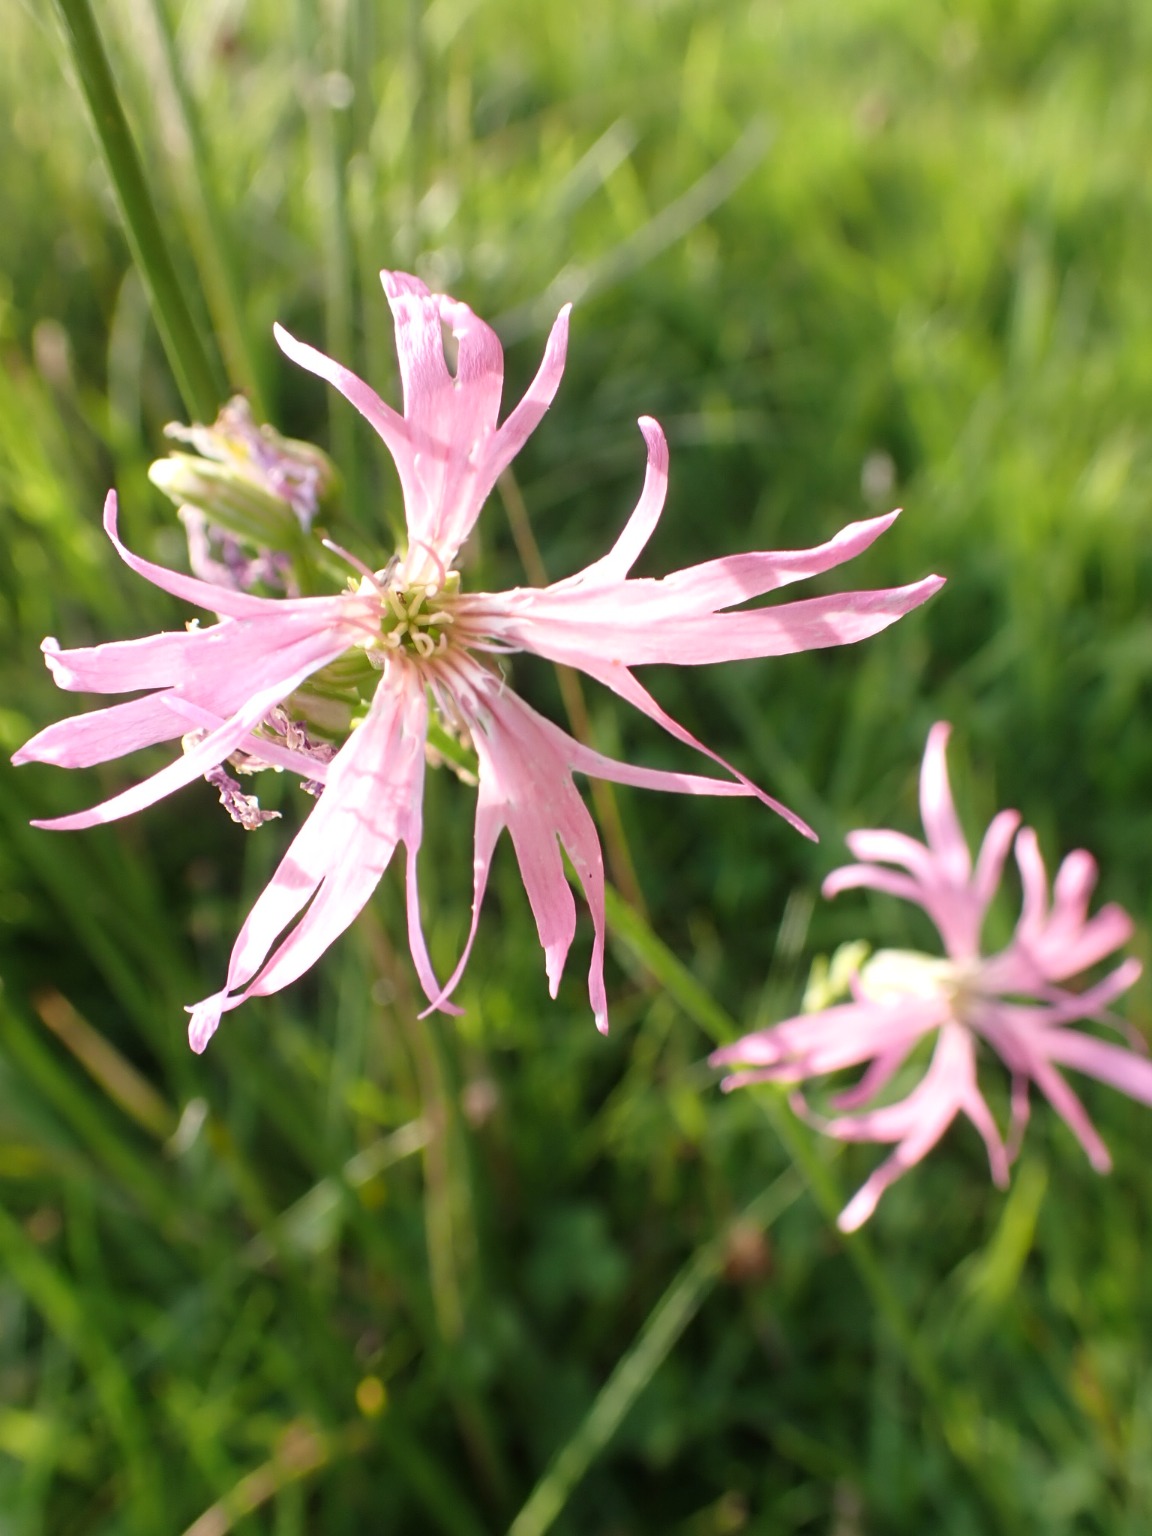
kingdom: Plantae
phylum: Tracheophyta
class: Magnoliopsida
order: Caryophyllales
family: Caryophyllaceae
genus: Silene
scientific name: Silene flos-cuculi
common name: Trævlekrone
